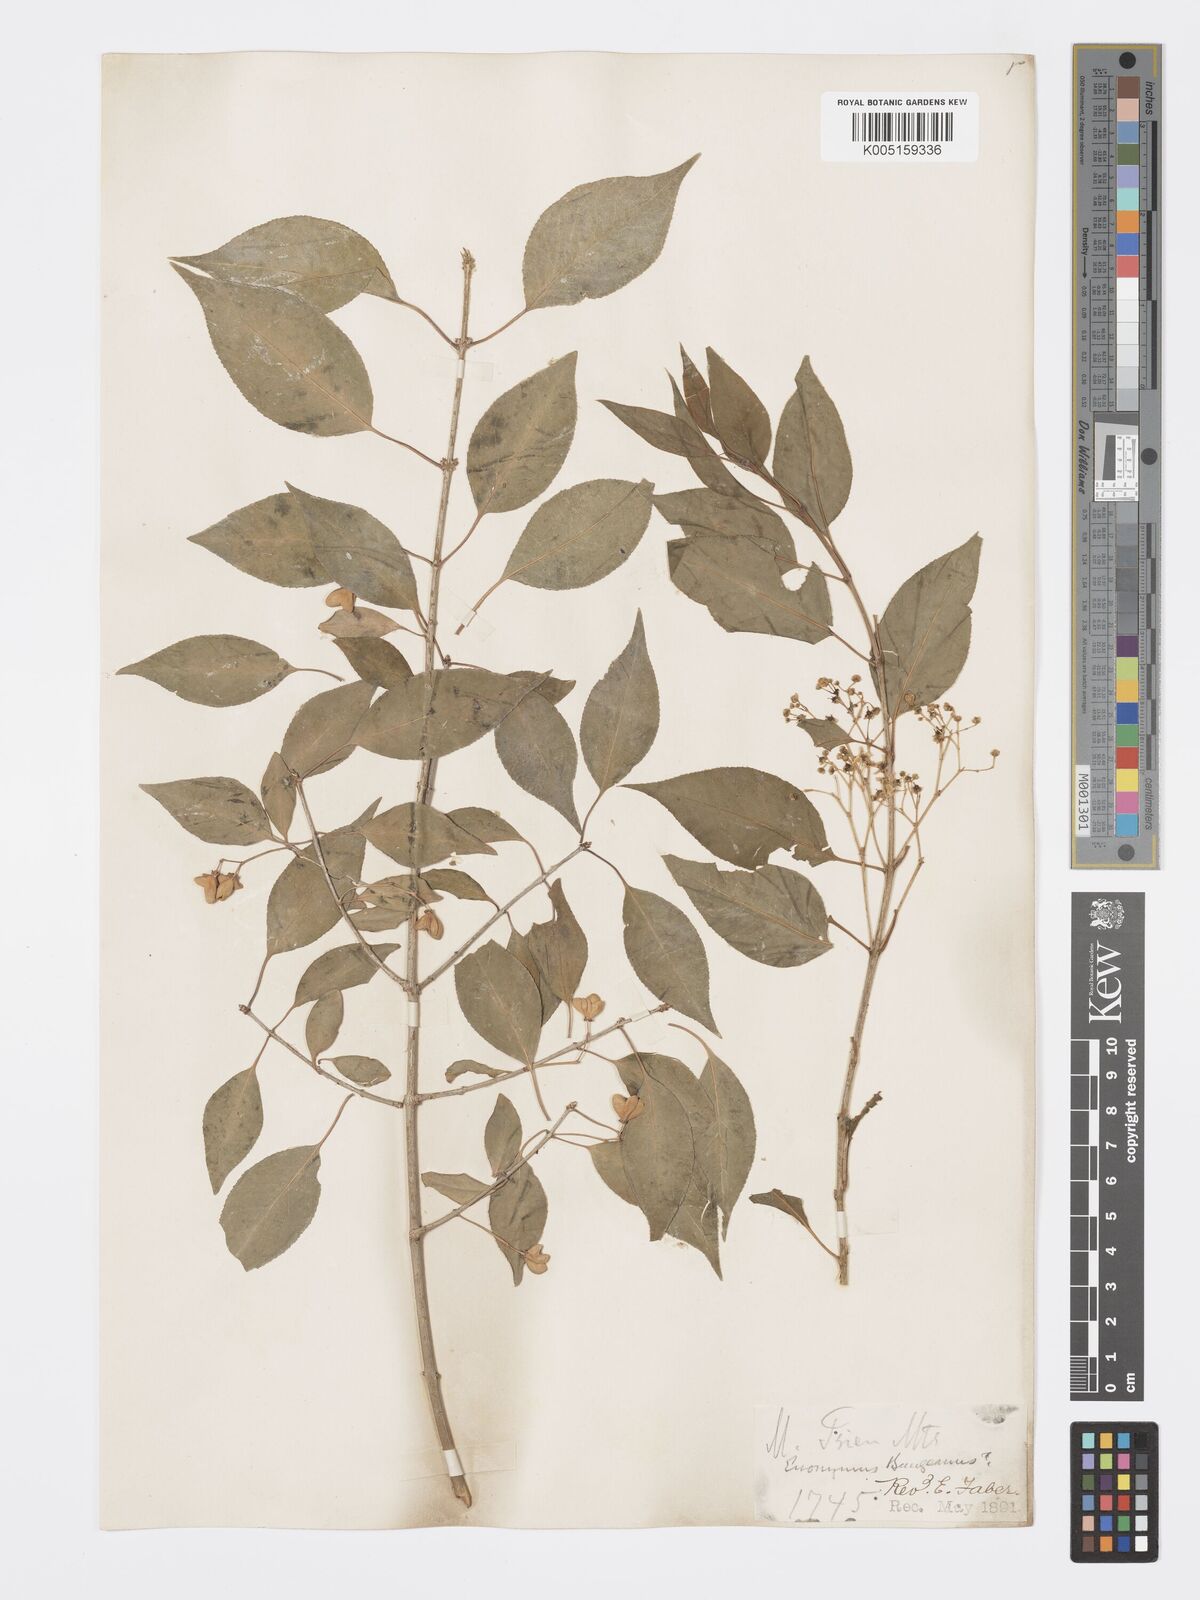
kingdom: Plantae
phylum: Tracheophyta
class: Magnoliopsida
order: Celastrales
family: Celastraceae
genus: Euonymus
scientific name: Euonymus maackii
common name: Hamilton's spindletree
